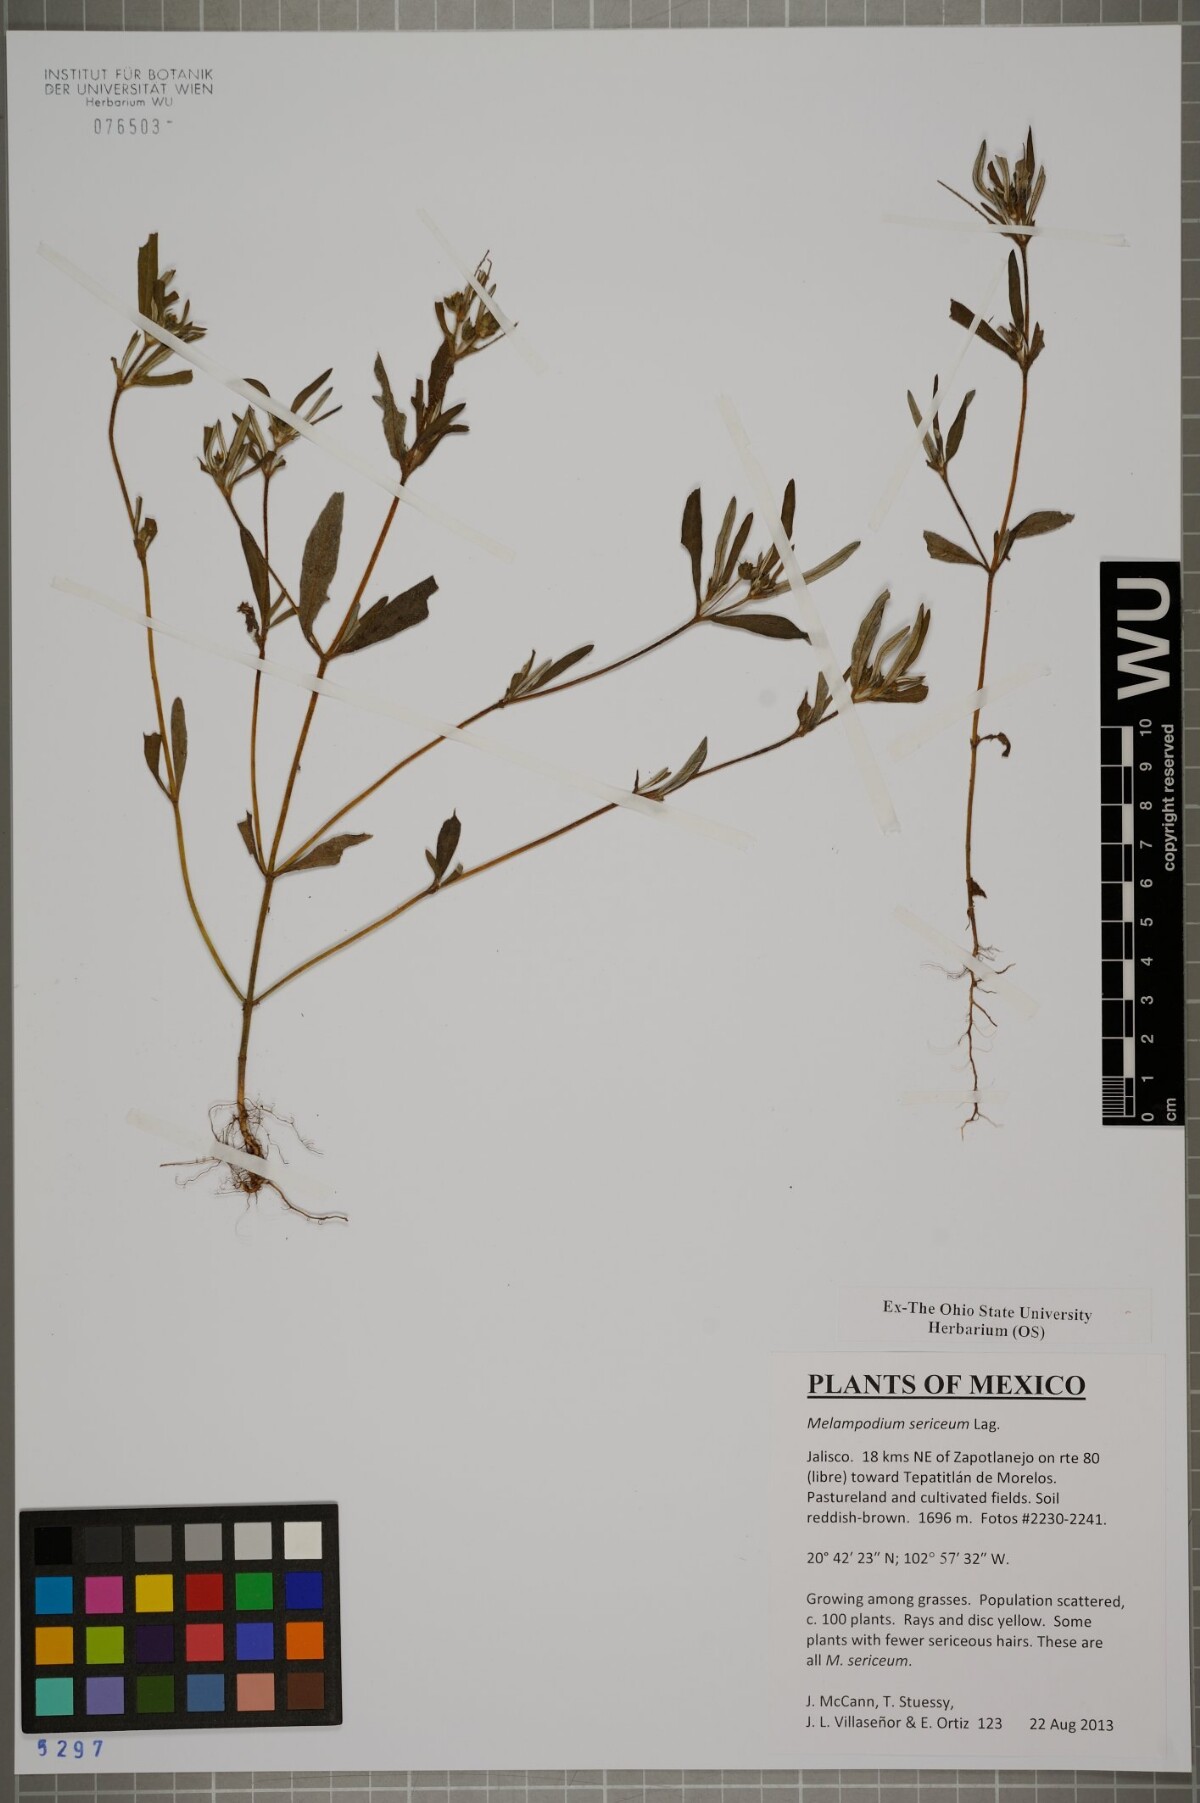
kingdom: Plantae
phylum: Tracheophyta
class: Magnoliopsida
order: Asterales
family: Asteraceae
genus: Melampodium
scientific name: Melampodium sericeum
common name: Rough blackfoot
